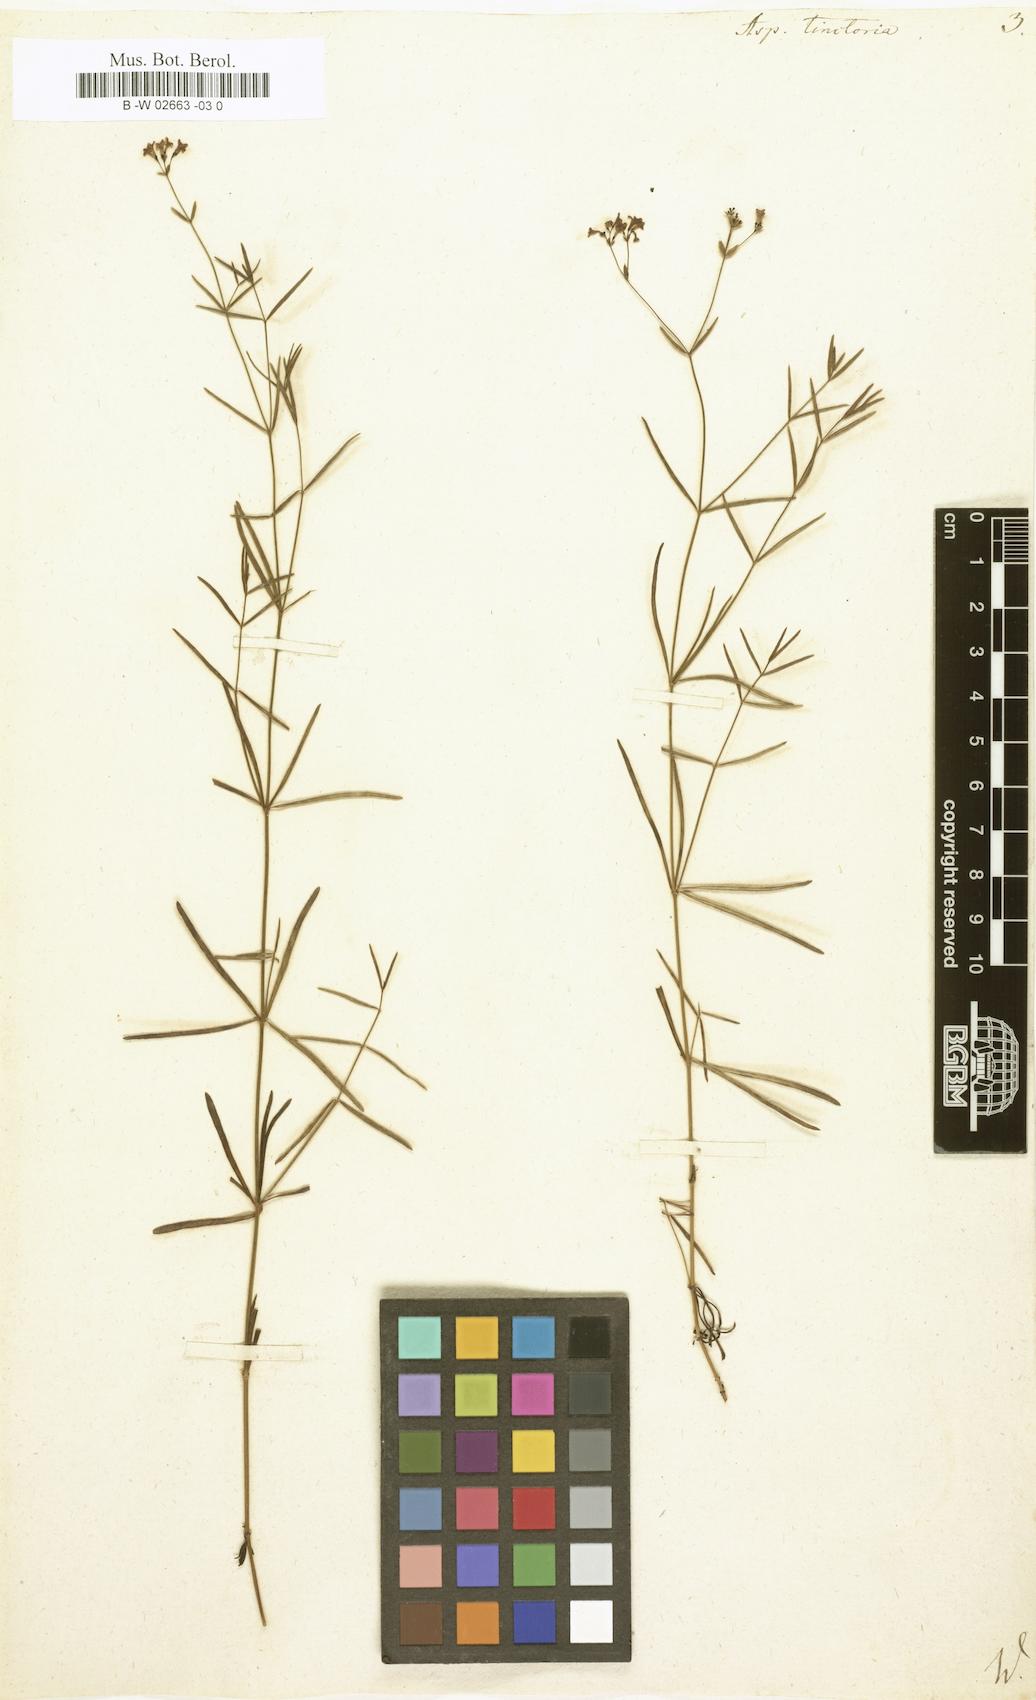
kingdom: Plantae
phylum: Tracheophyta
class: Magnoliopsida
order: Gentianales
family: Rubiaceae
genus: Asperula
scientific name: Asperula tinctoria
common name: Dyer's woodruff
